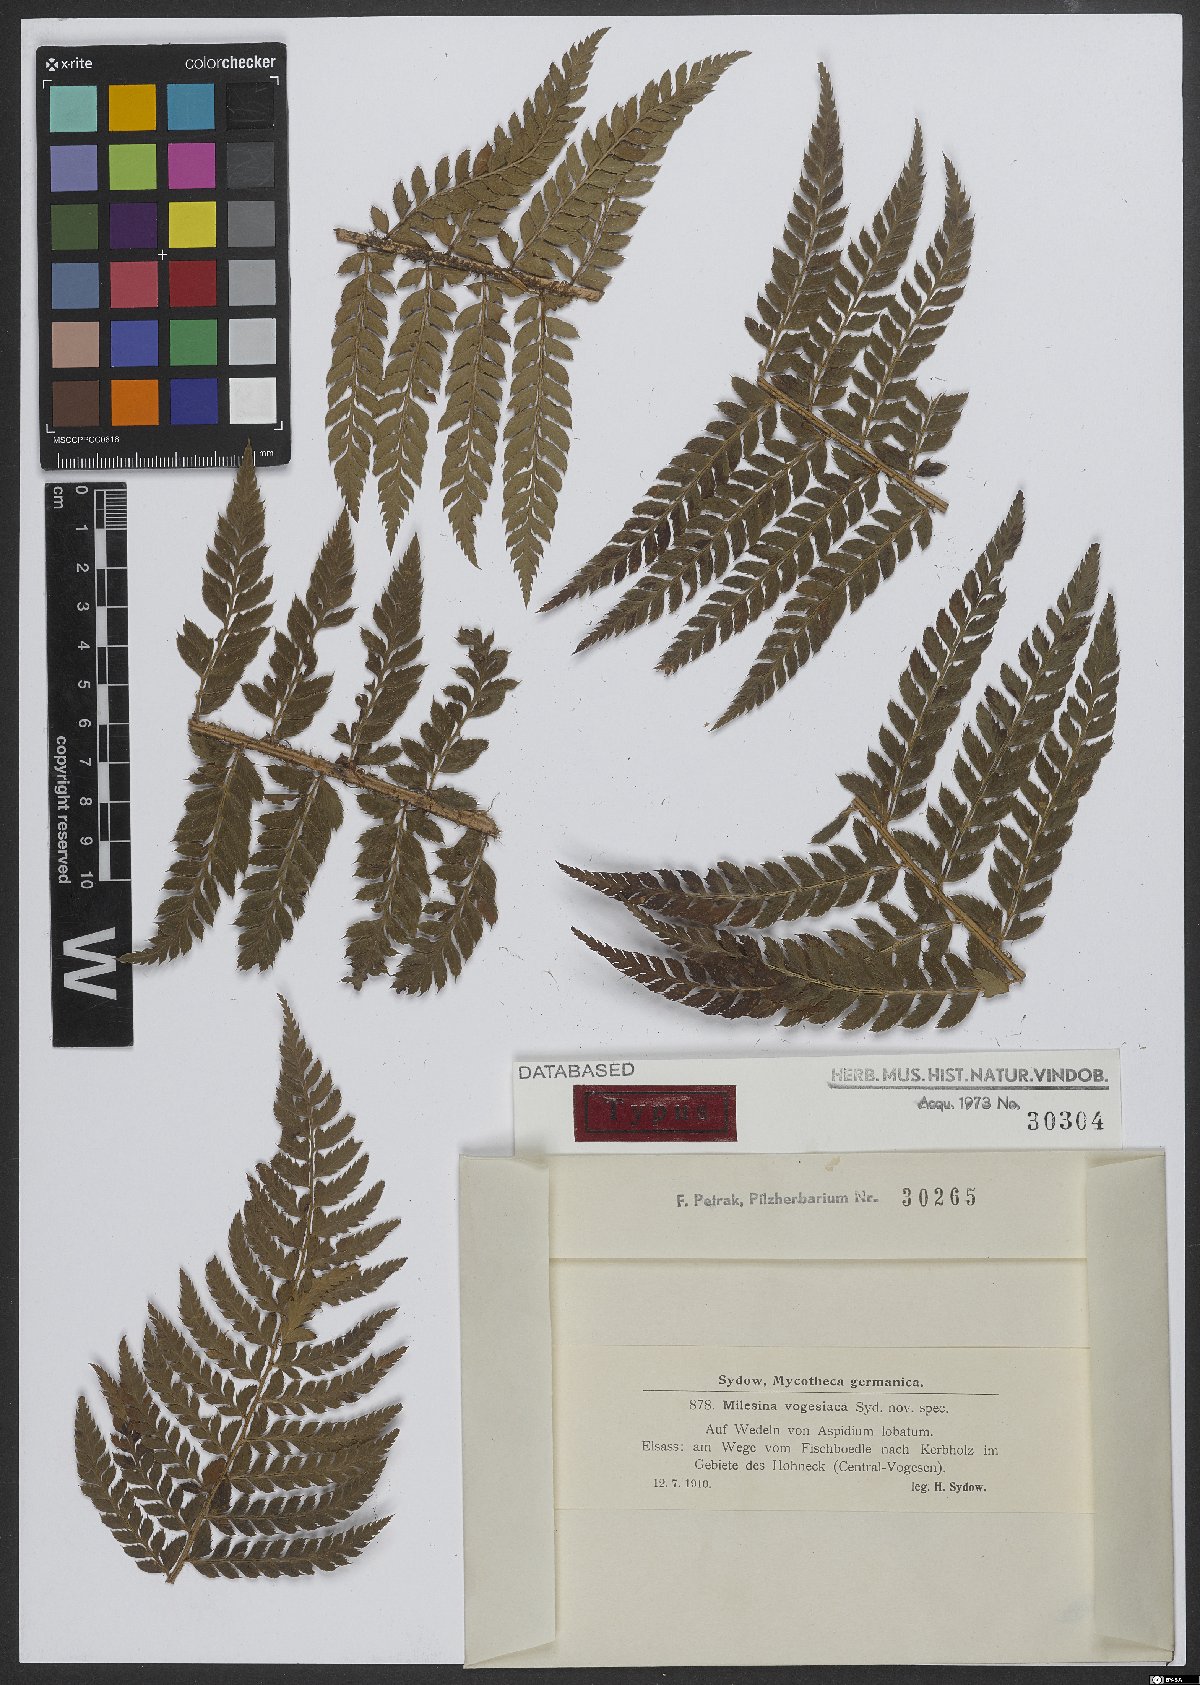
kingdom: Fungi
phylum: Basidiomycota
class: Pucciniomycetes
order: Pucciniales
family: Milesinaceae
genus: Milesina
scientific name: Milesina vogesiaca
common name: Smooth-spored fern rust
